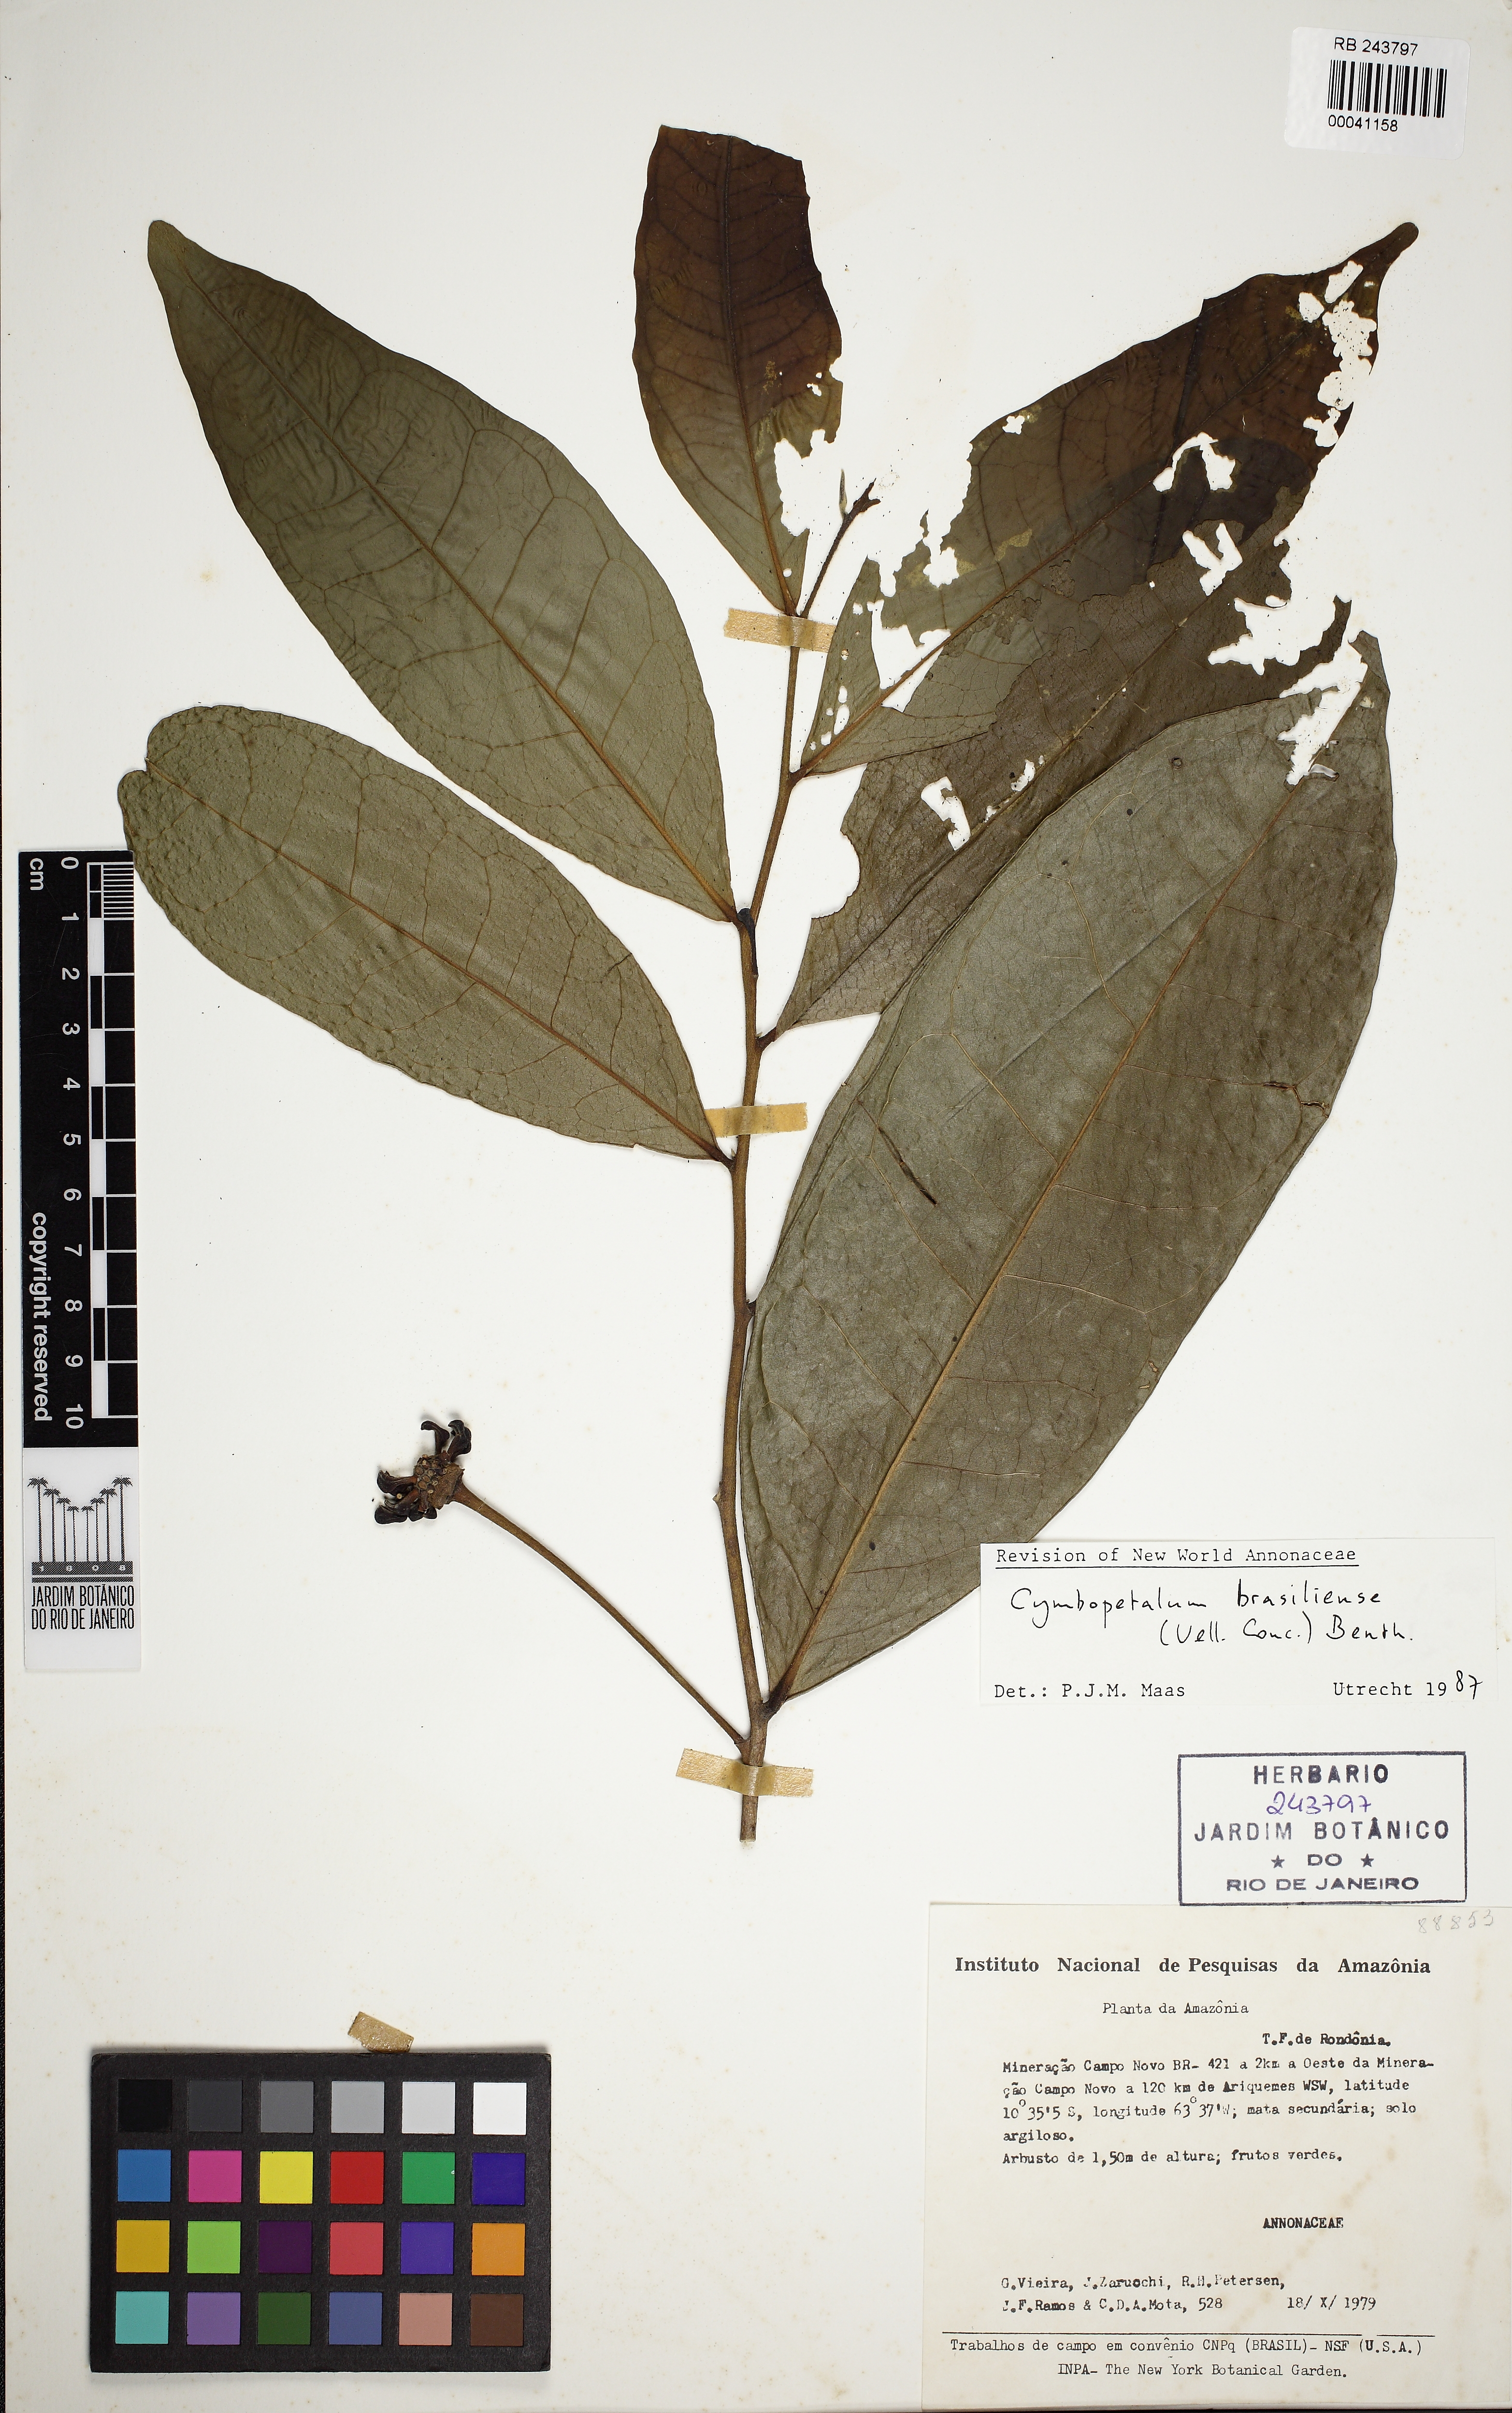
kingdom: Plantae
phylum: Tracheophyta
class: Magnoliopsida
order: Magnoliales
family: Annonaceae
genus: Cymbopetalum
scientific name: Cymbopetalum brasiliense
